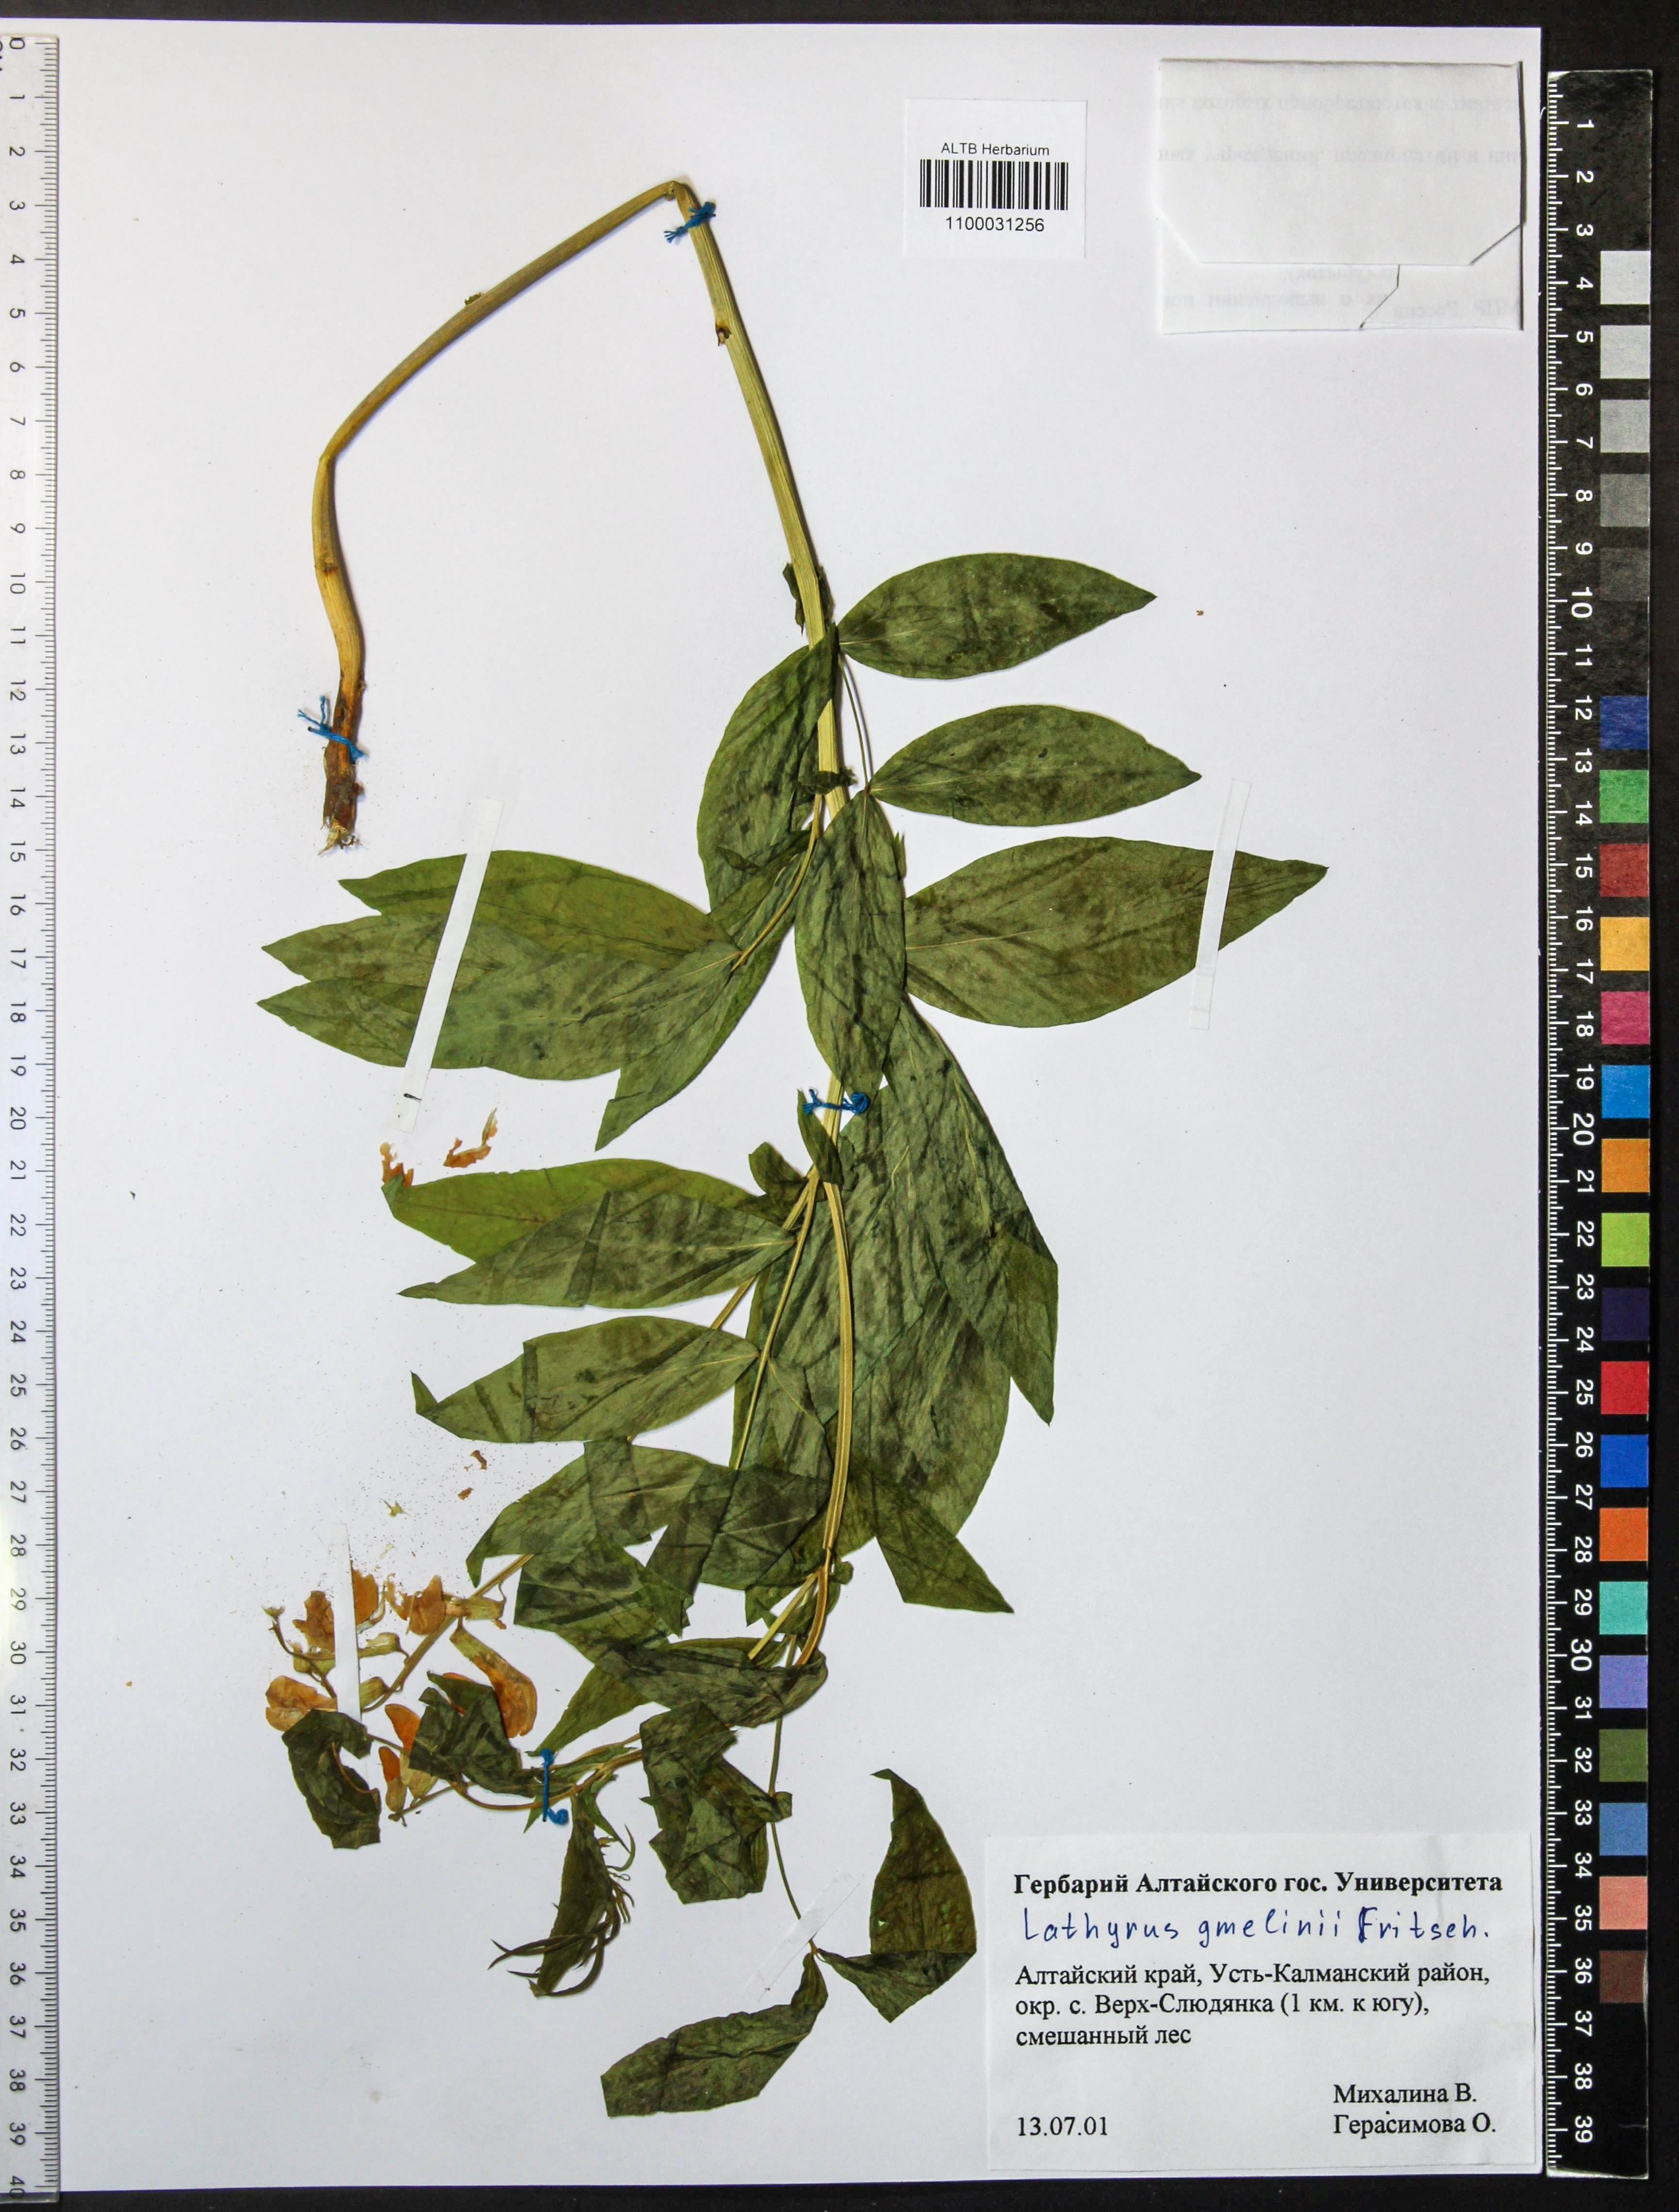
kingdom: Plantae
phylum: Tracheophyta
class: Magnoliopsida
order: Fabales
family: Fabaceae
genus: Lathyrus
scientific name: Lathyrus gmelinii
